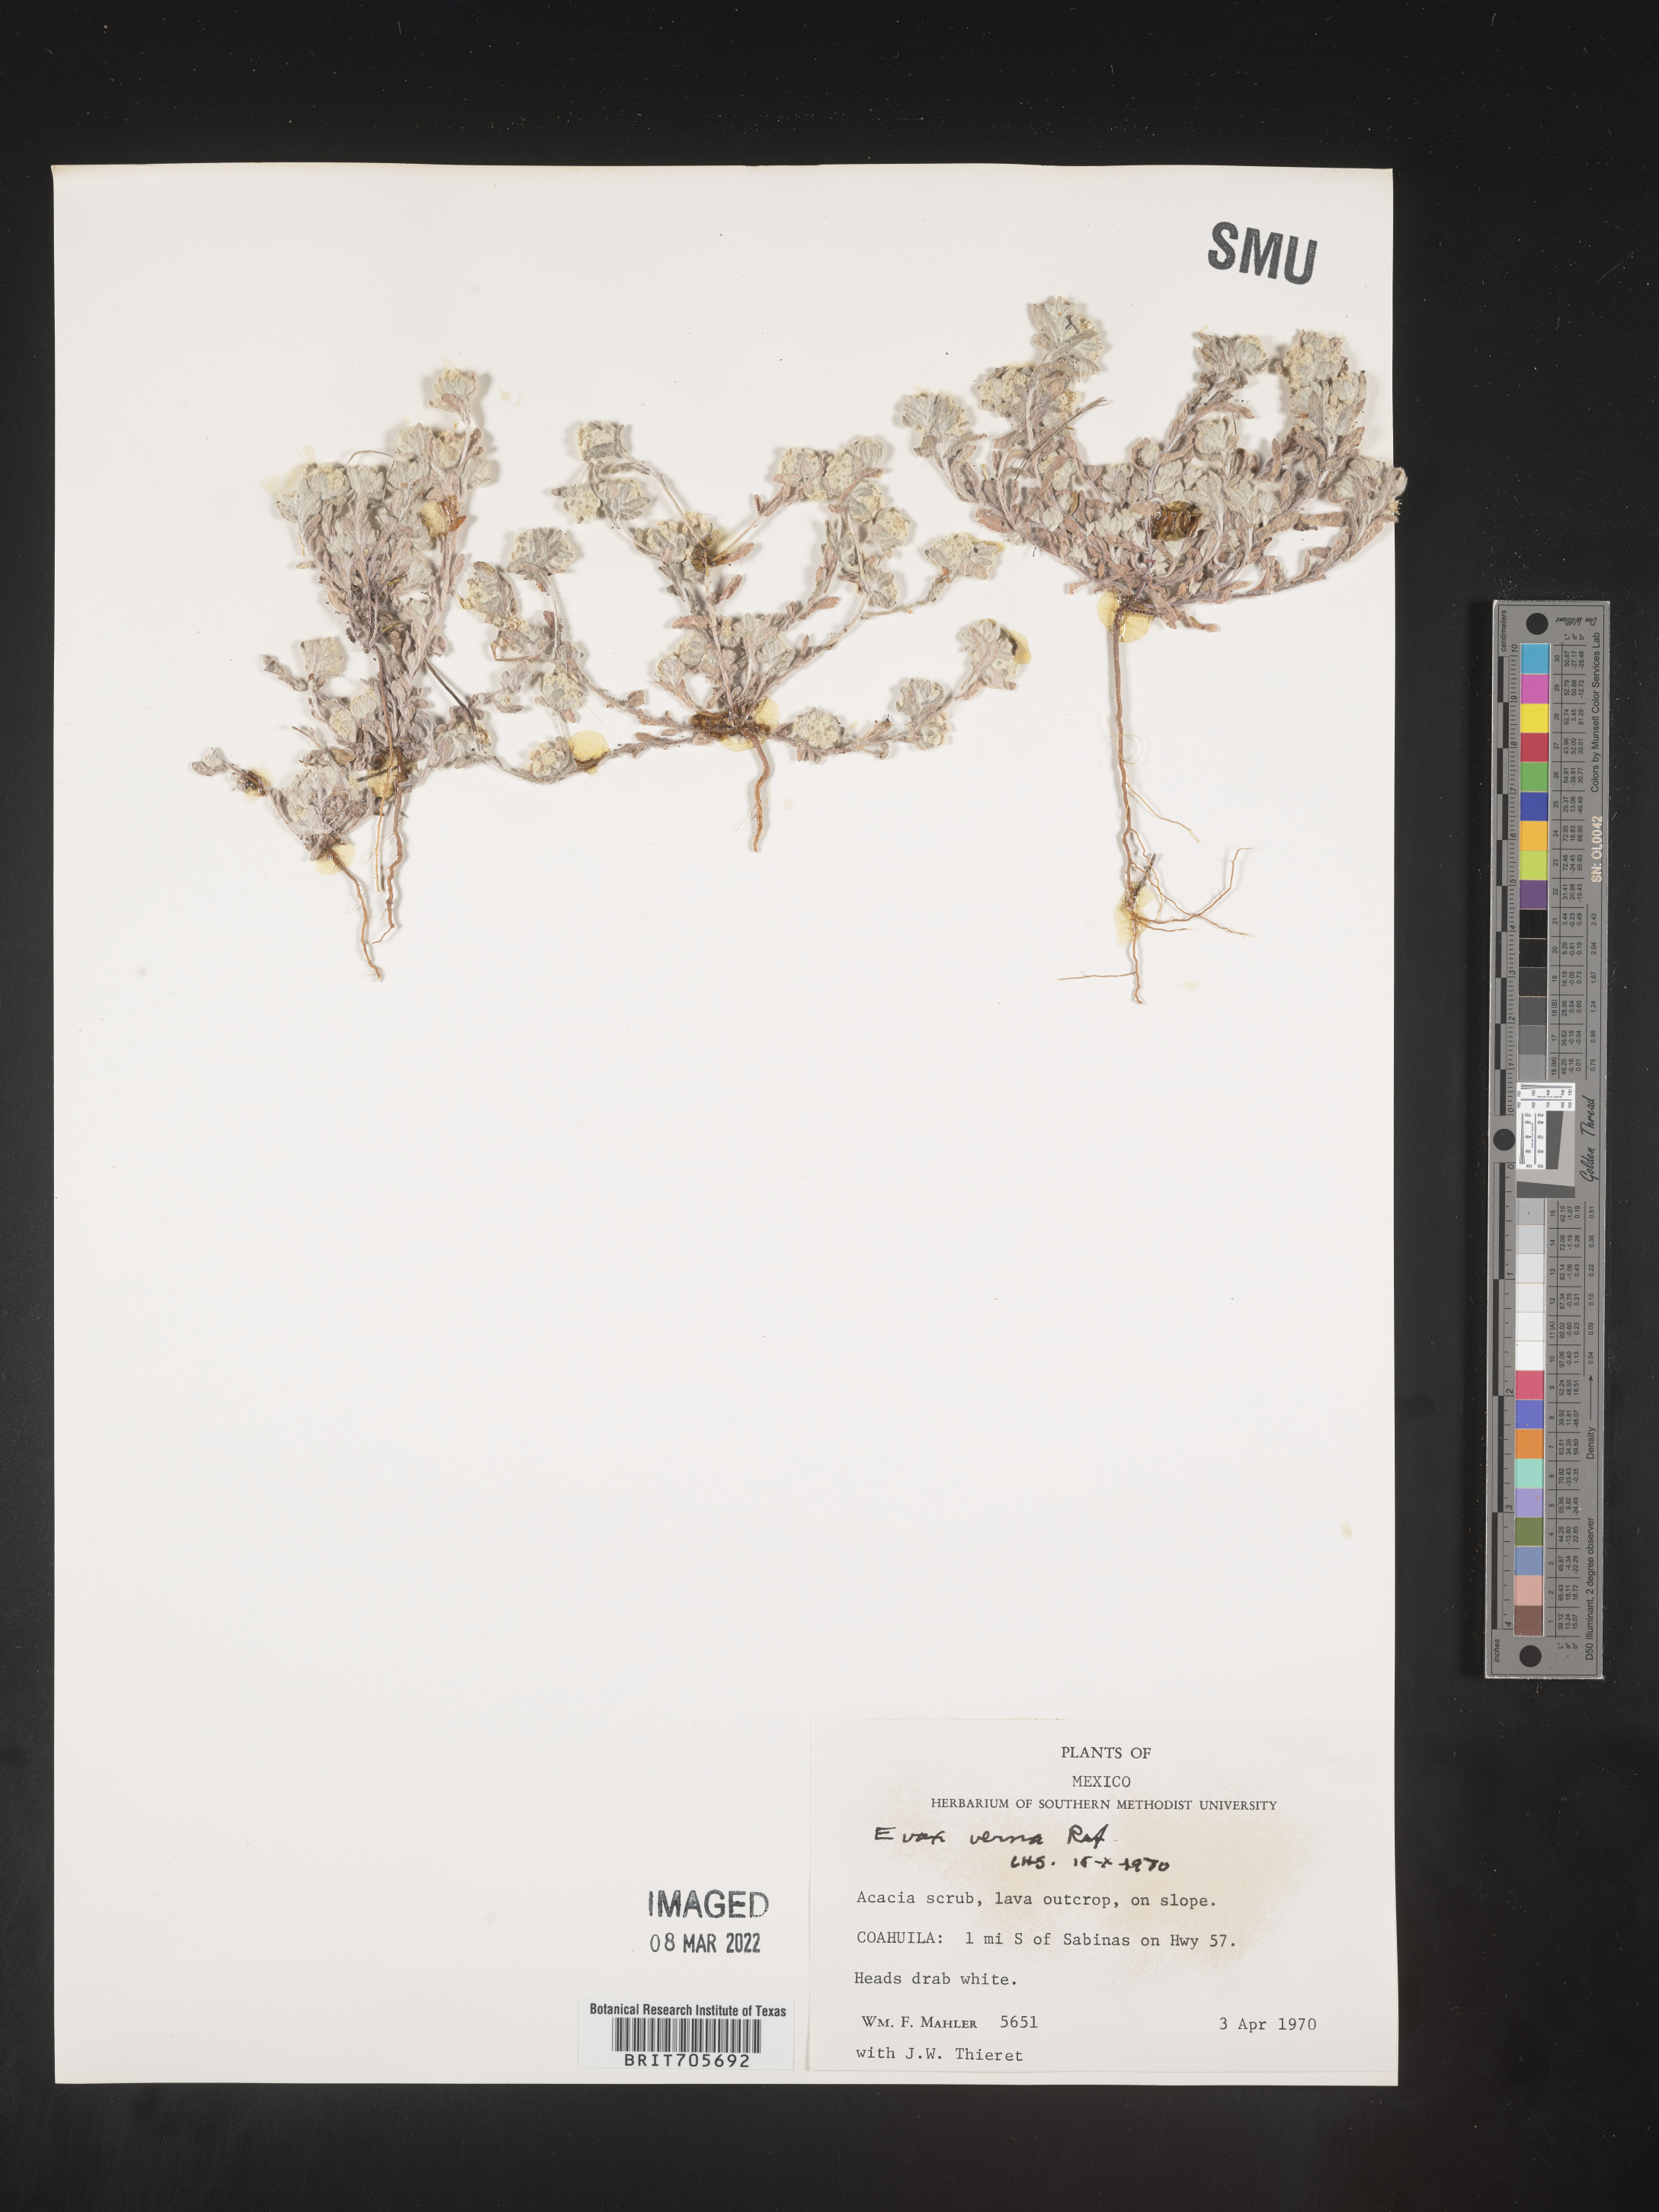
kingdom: Plantae
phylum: Tracheophyta
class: Magnoliopsida
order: Asterales
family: Asteraceae
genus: Filago
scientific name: Filago
